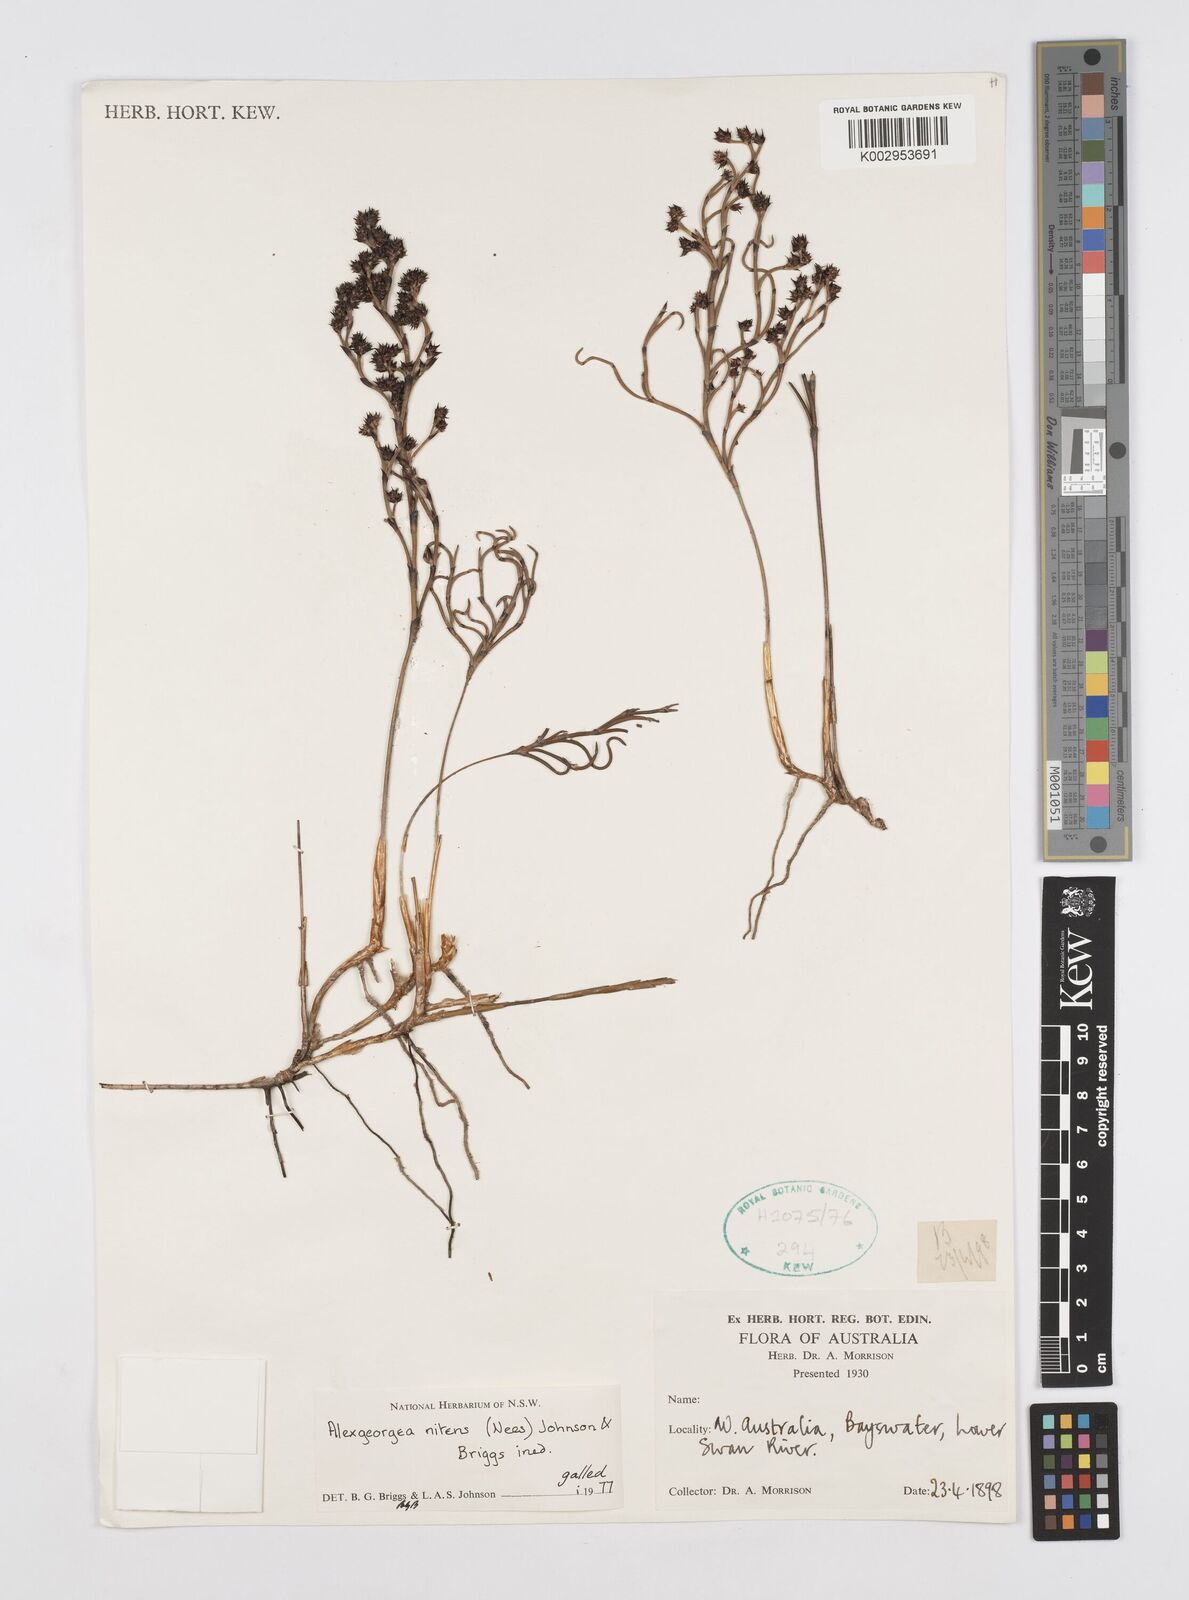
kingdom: Plantae
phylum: Tracheophyta
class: Liliopsida
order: Poales
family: Restionaceae
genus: Alexgeorgea
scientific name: Alexgeorgea nitens
